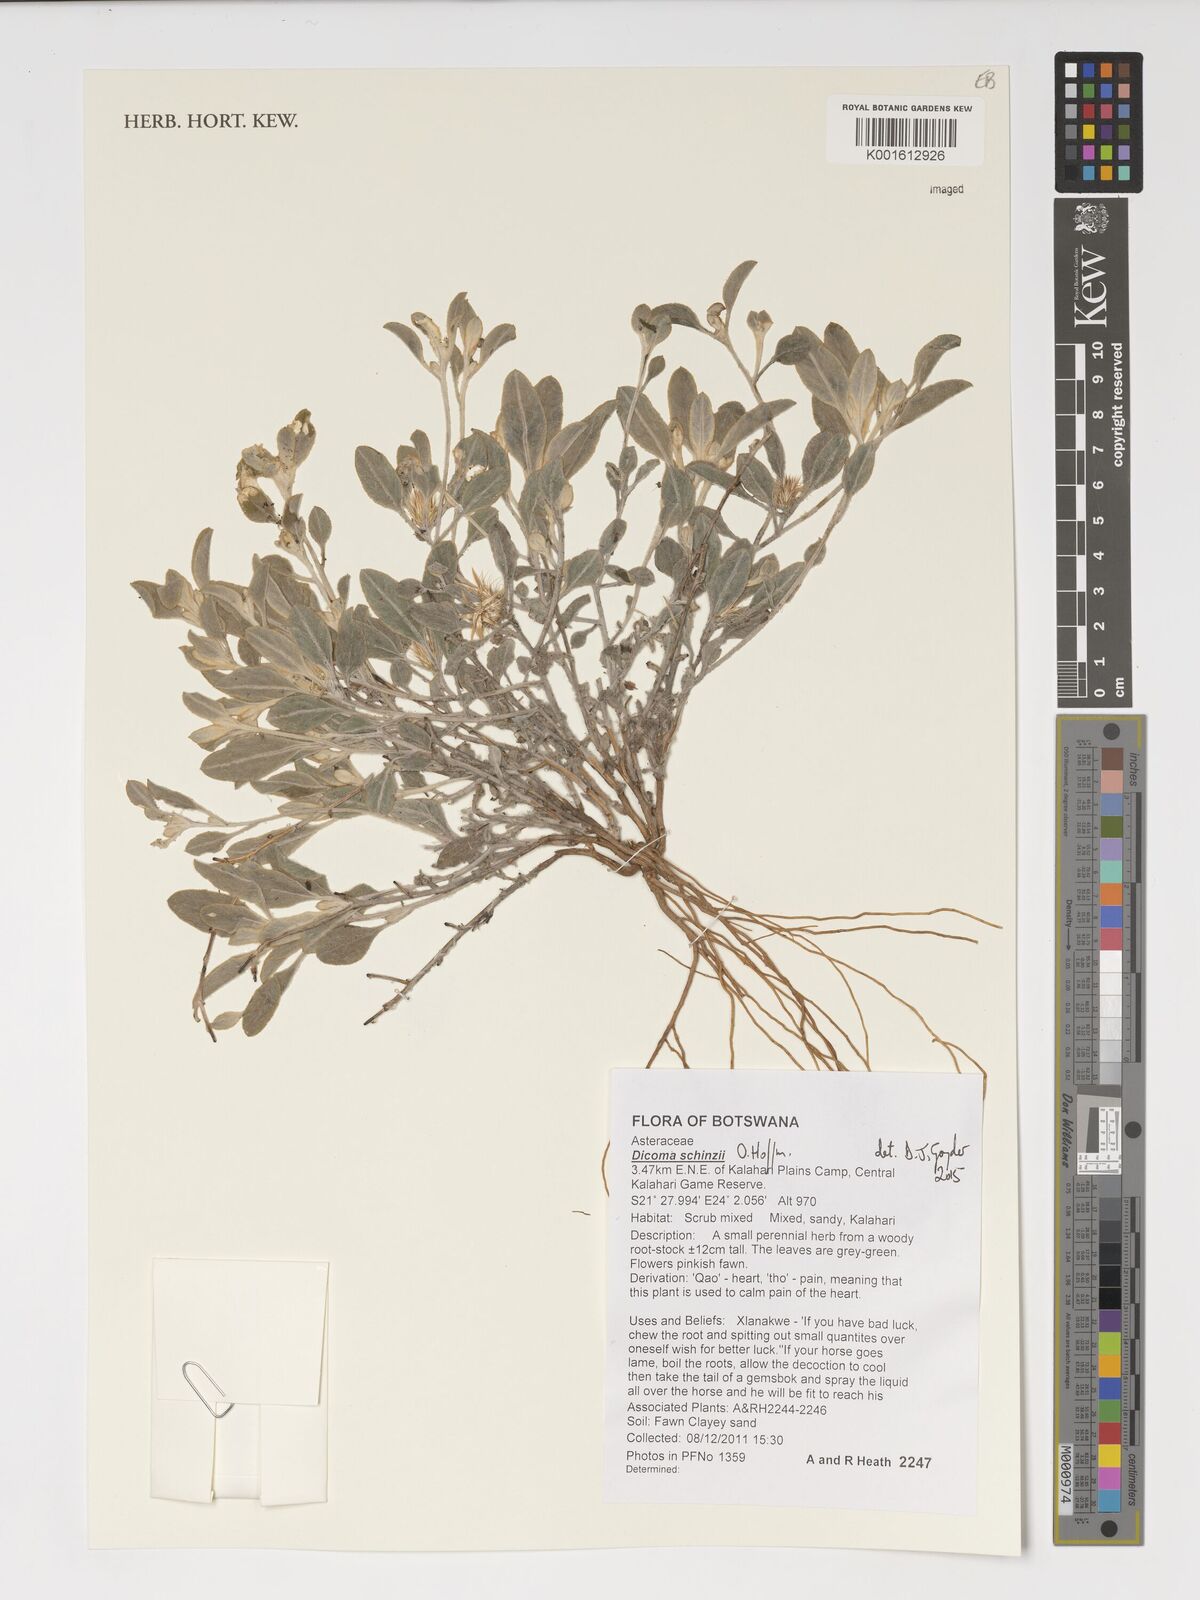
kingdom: Plantae
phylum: Tracheophyta
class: Magnoliopsida
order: Asterales
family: Asteraceae
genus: Dicoma
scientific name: Dicoma schinzii
